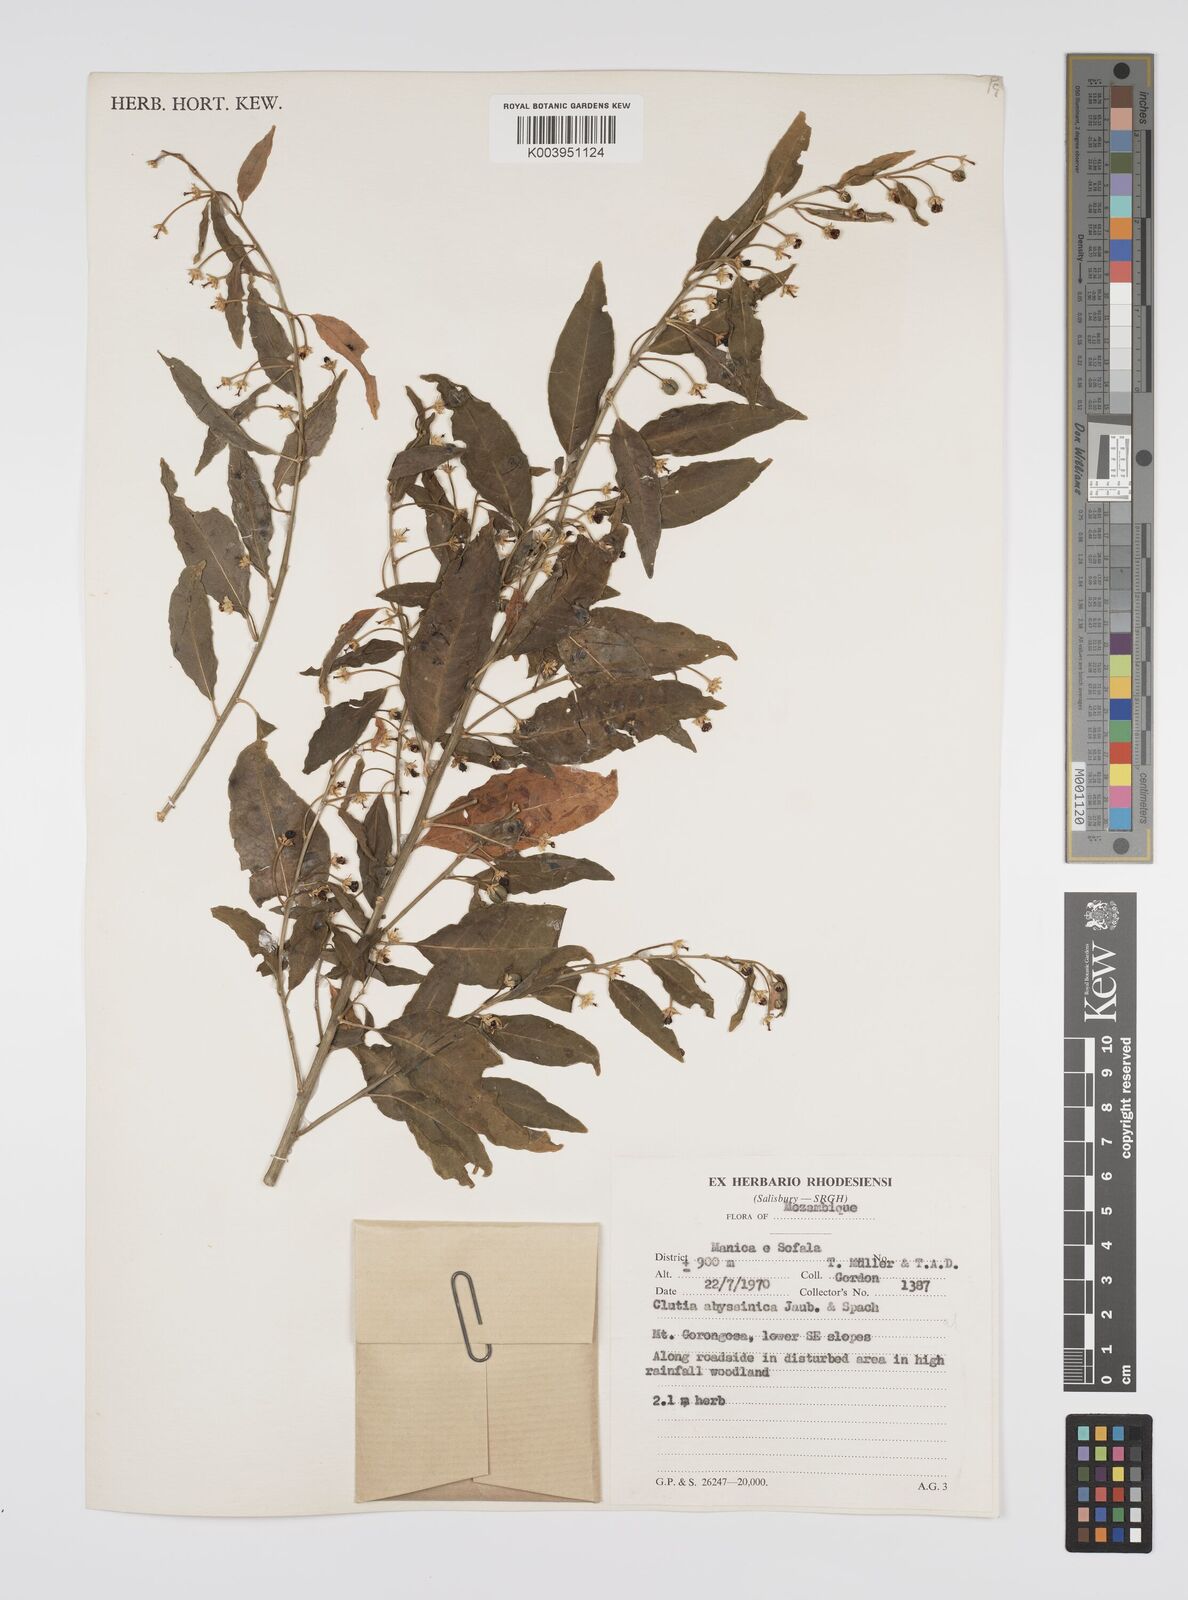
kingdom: Plantae
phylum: Tracheophyta
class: Magnoliopsida
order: Malpighiales
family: Peraceae
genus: Clutia
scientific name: Clutia abyssinica
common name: Large lightning bush
